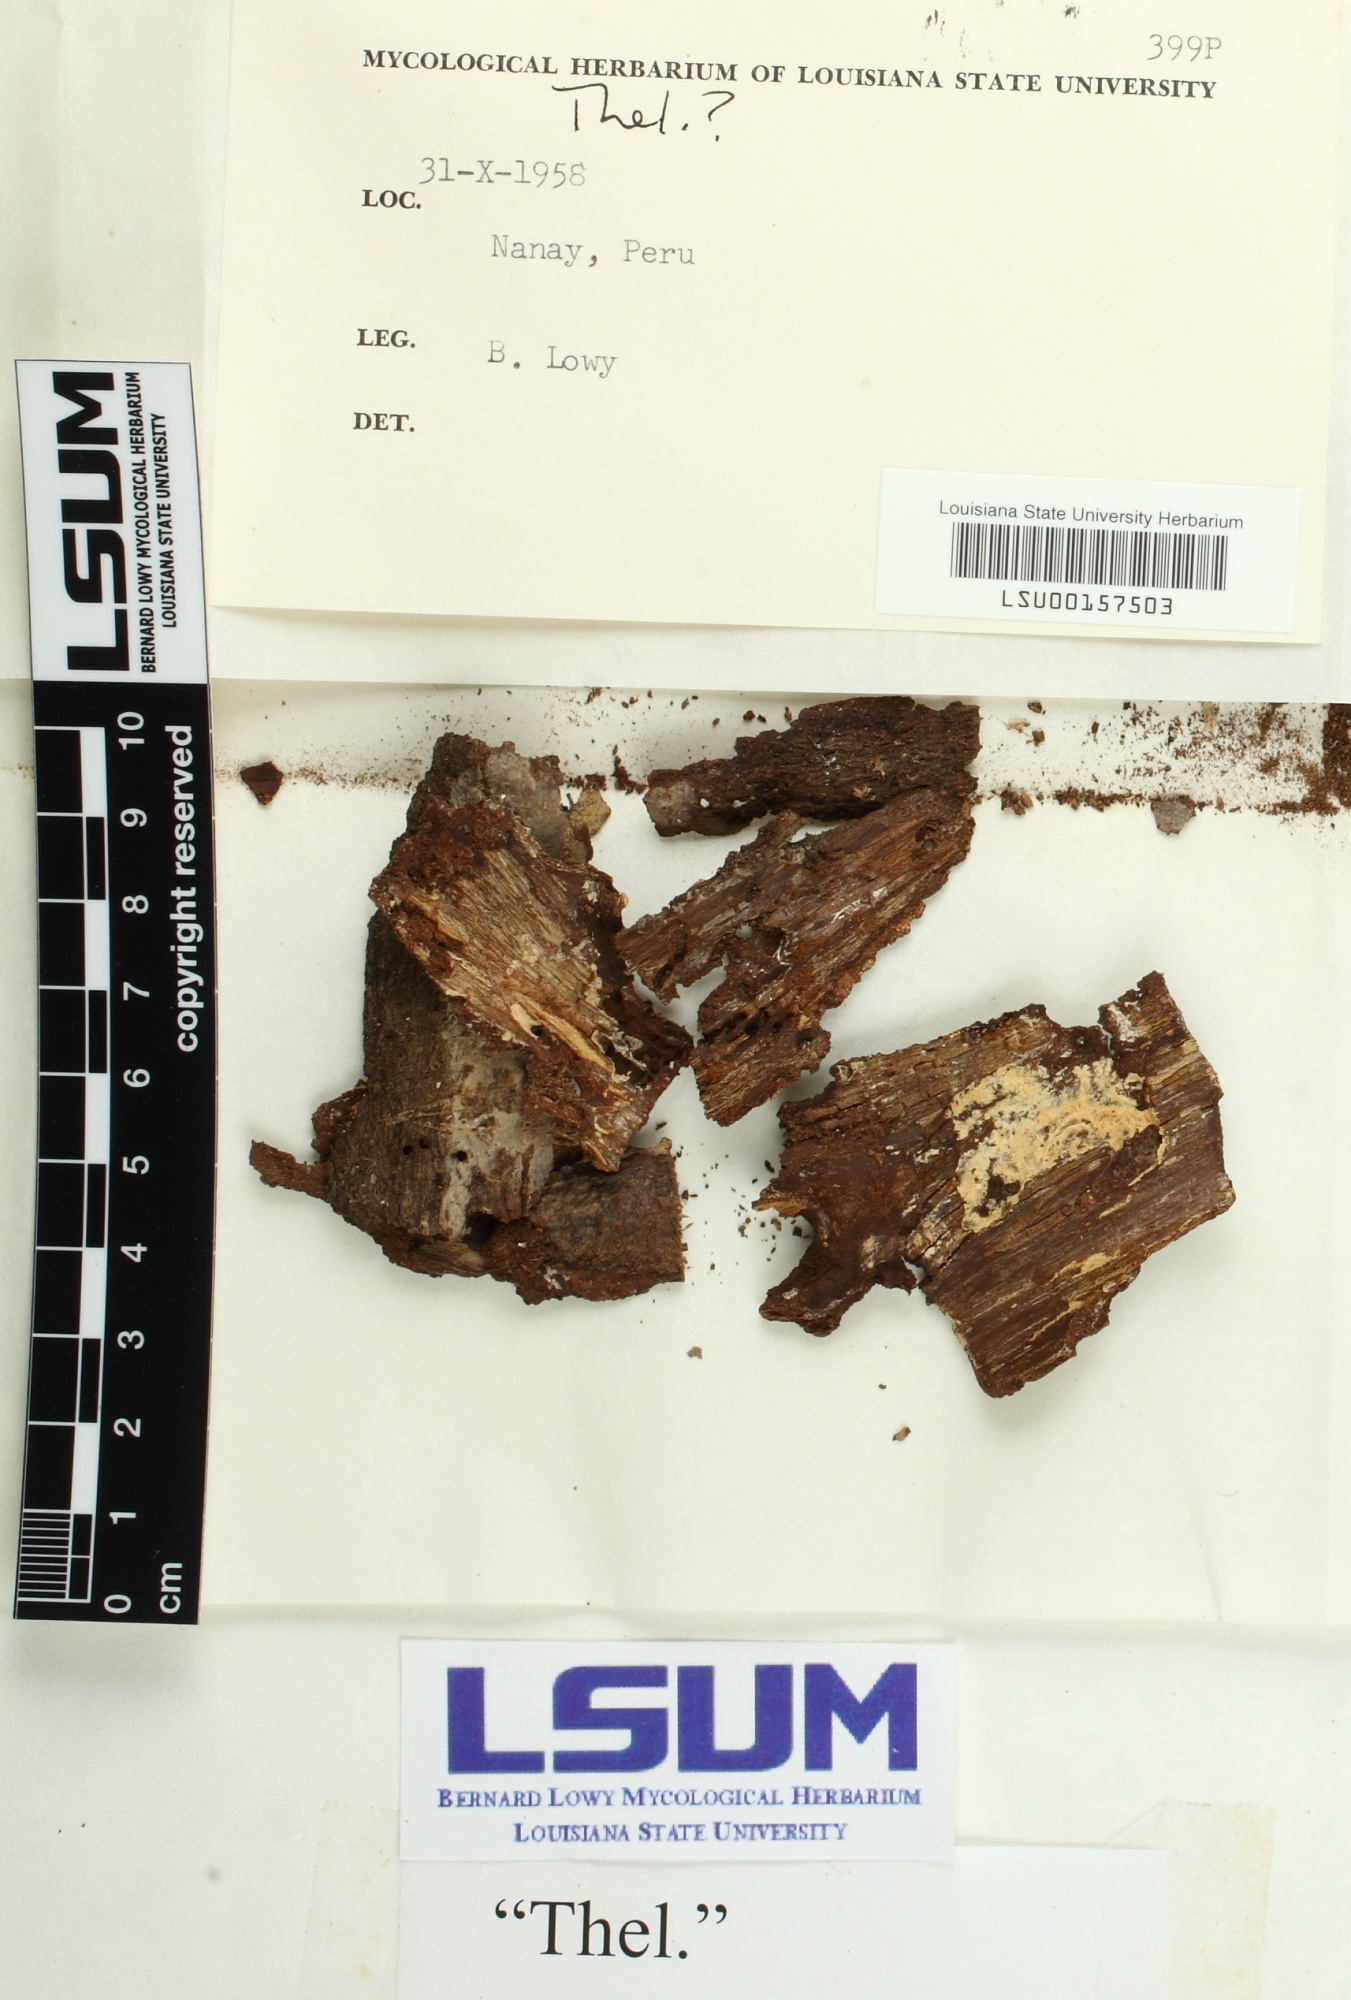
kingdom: Fungi
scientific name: Fungi
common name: Fungi
